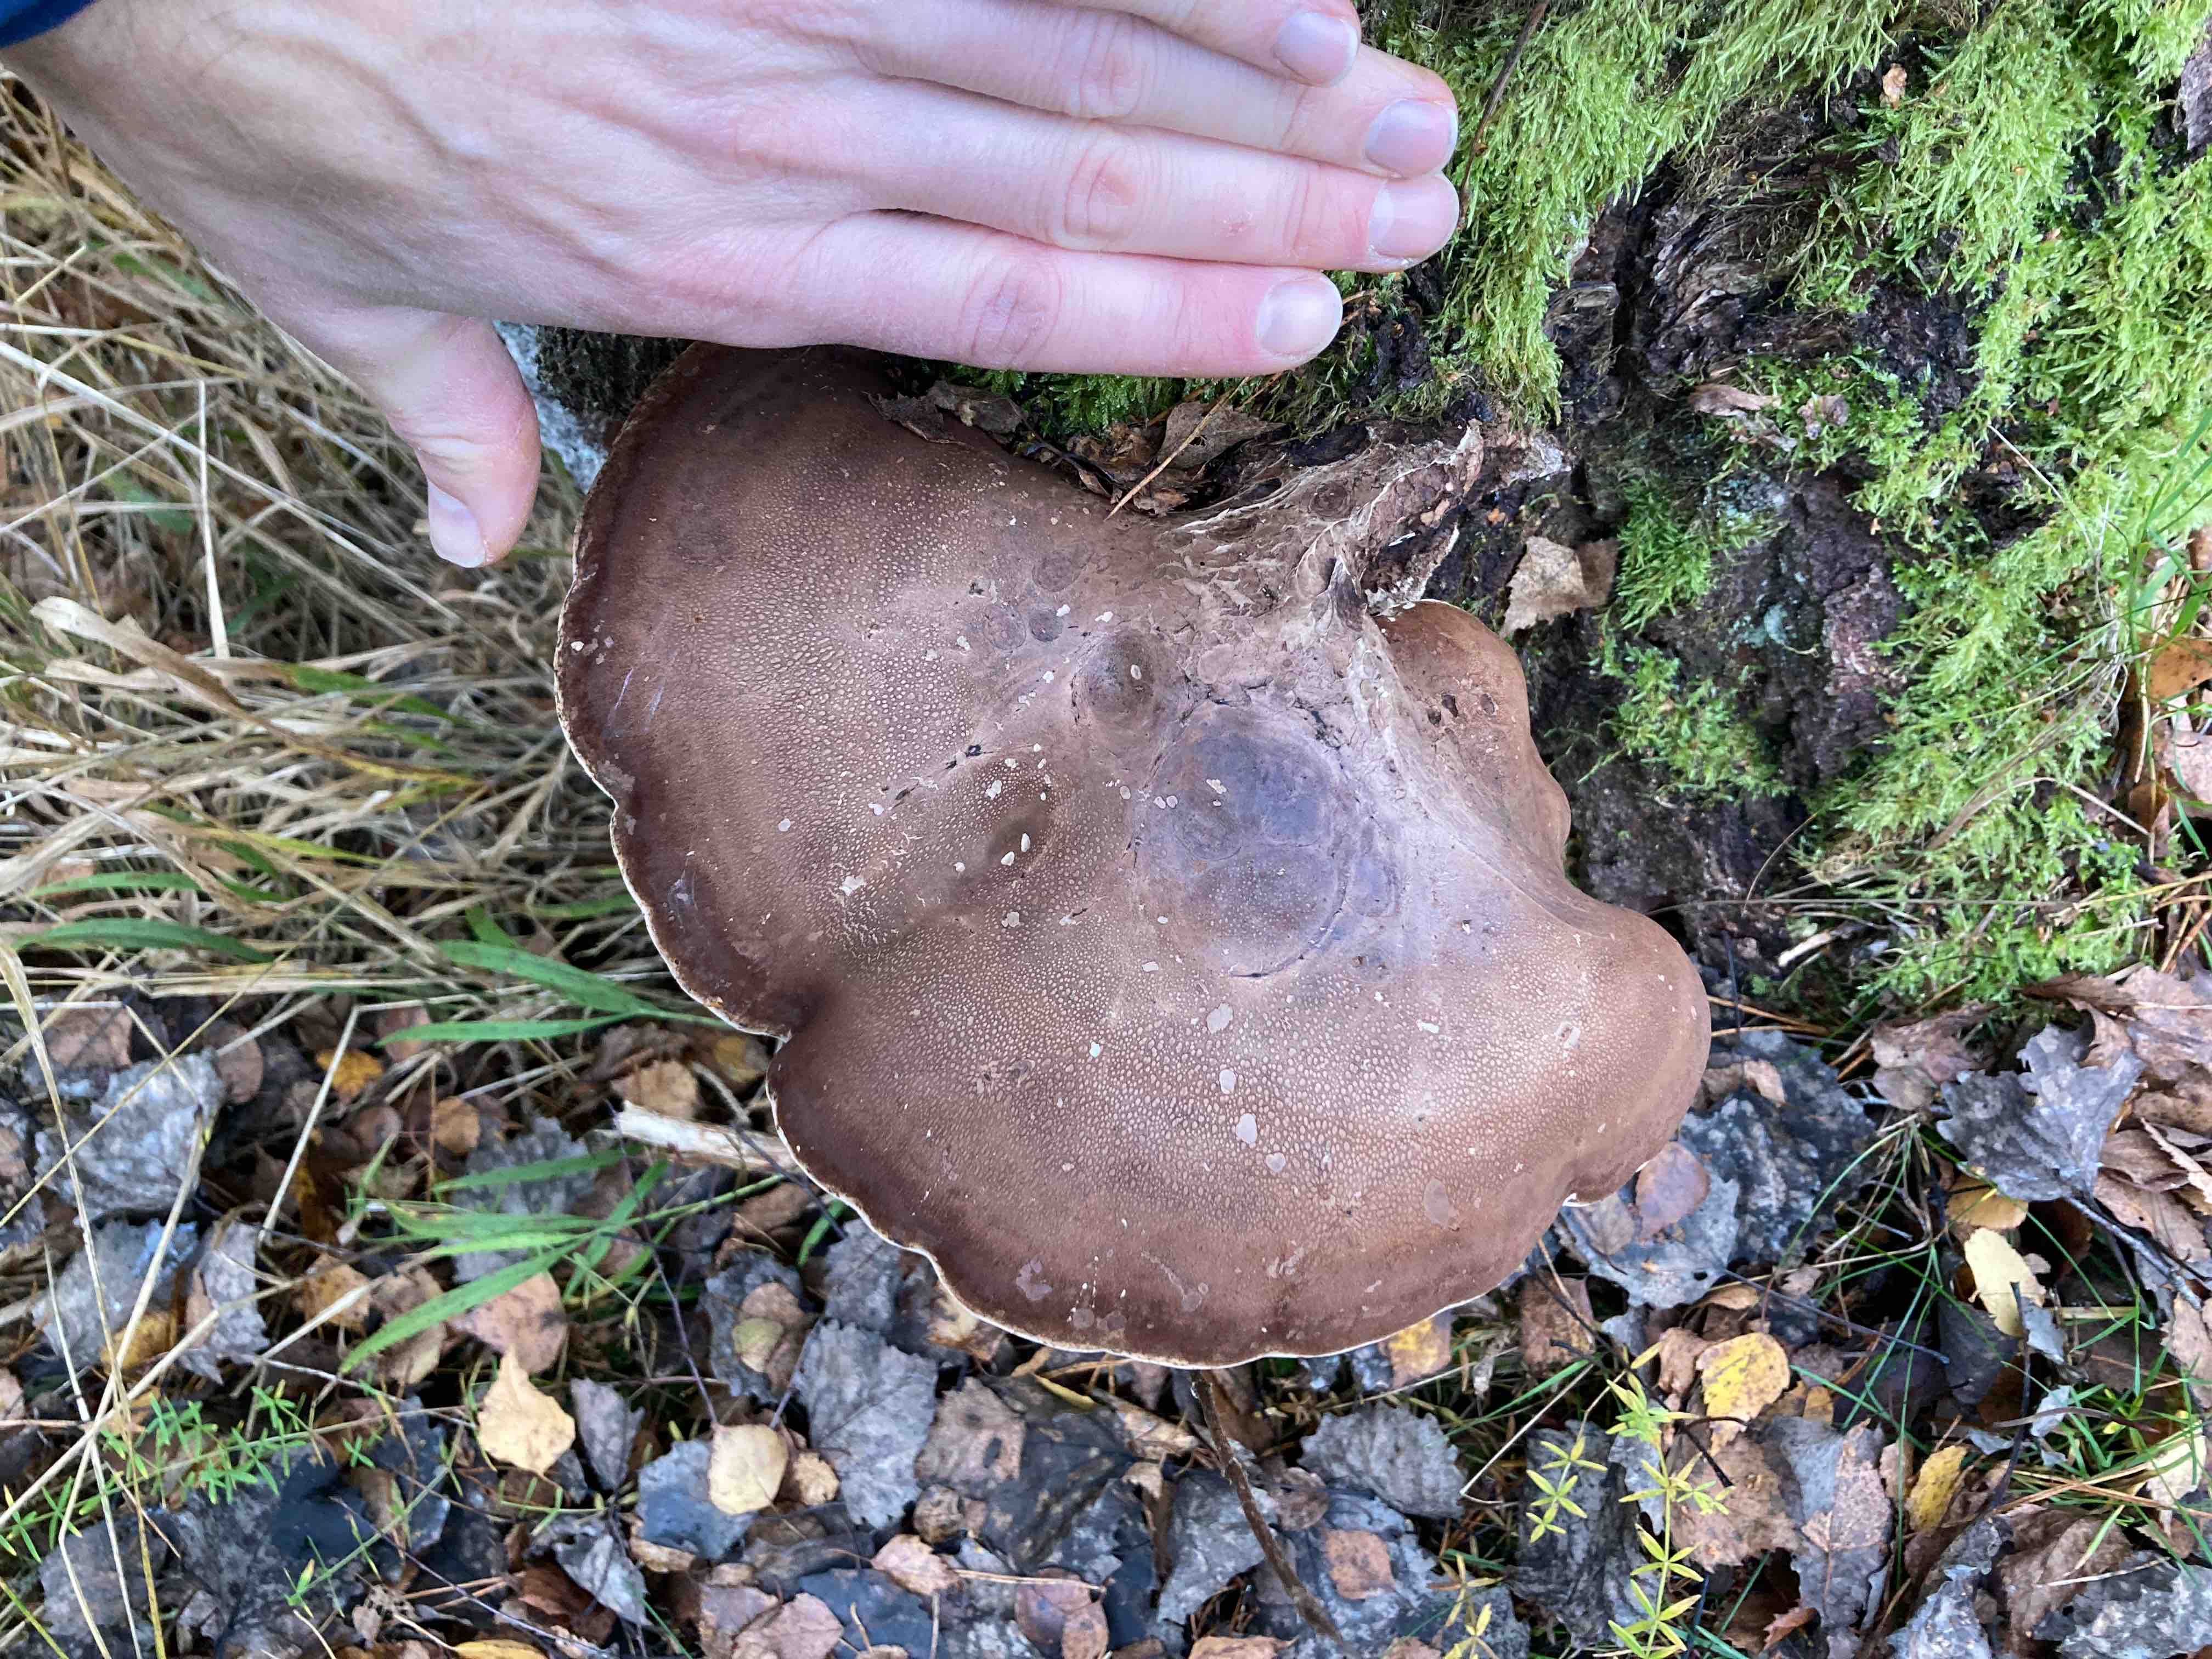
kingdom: Fungi
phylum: Basidiomycota
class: Agaricomycetes
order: Polyporales
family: Fomitopsidaceae
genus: Fomitopsis
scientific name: Fomitopsis betulina
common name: birkeporesvamp
